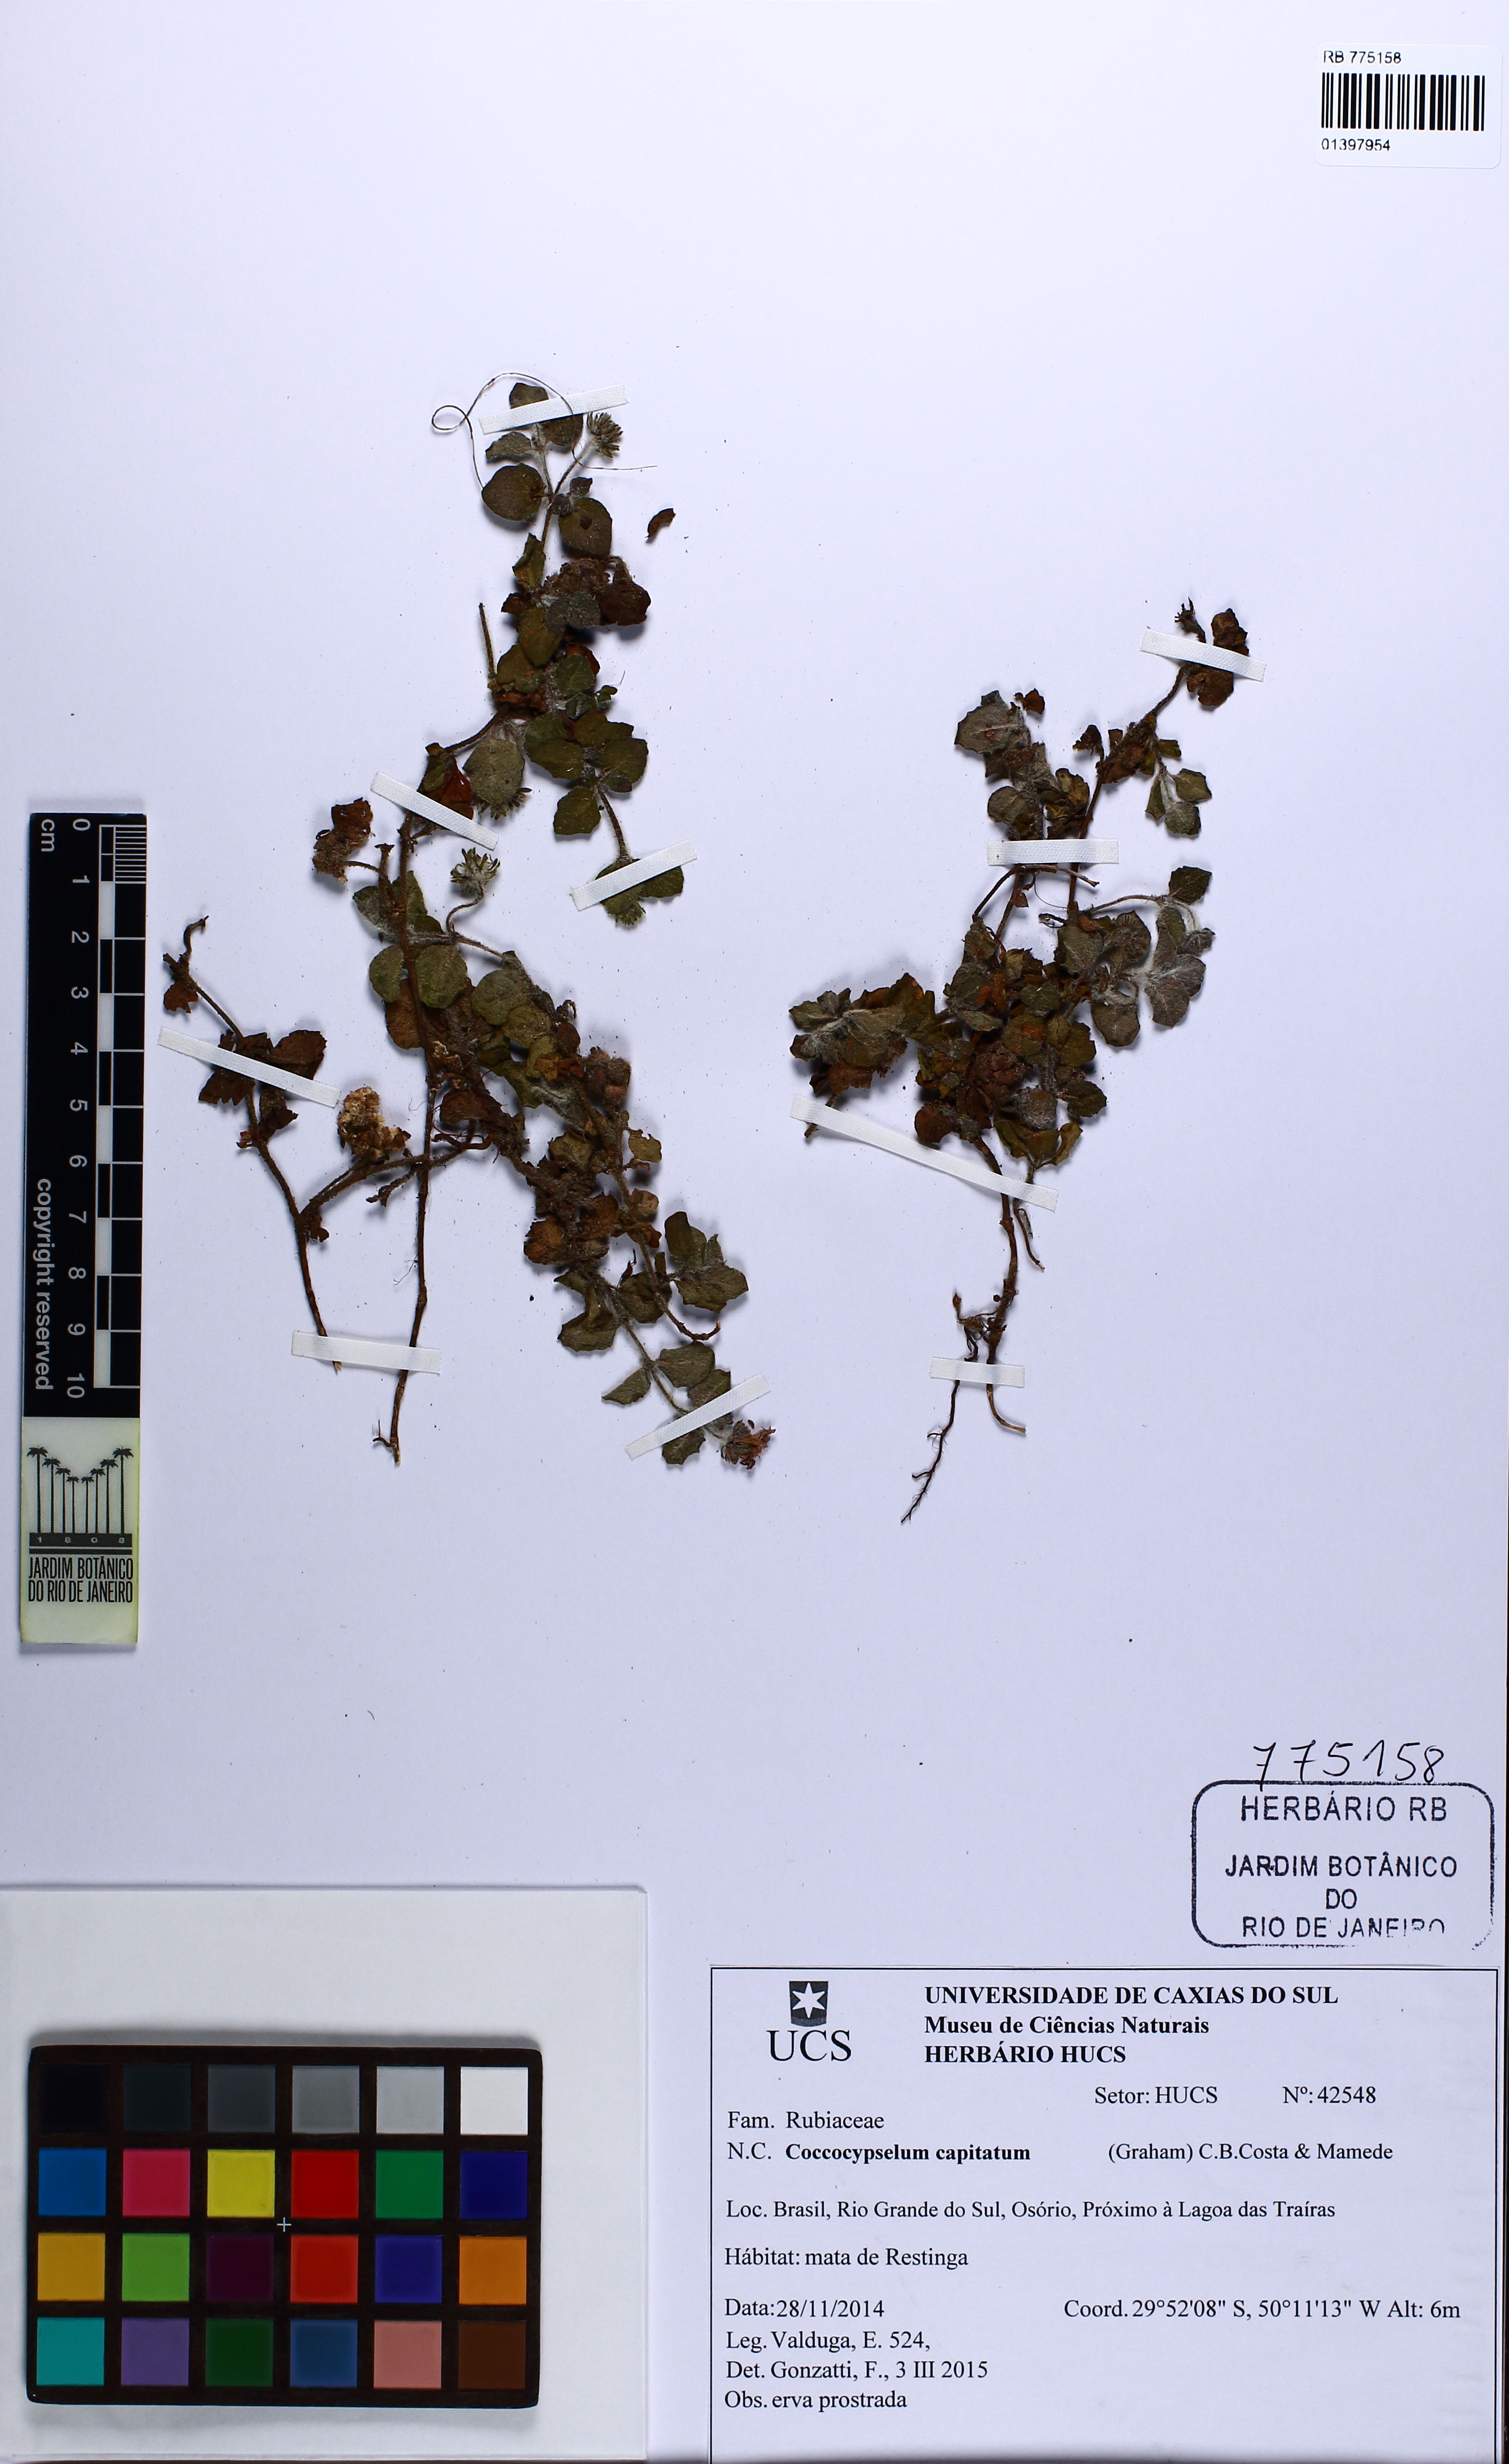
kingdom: Plantae
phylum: Tracheophyta
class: Magnoliopsida
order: Gentianales
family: Rubiaceae
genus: Coccocypselum
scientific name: Coccocypselum capitatum
